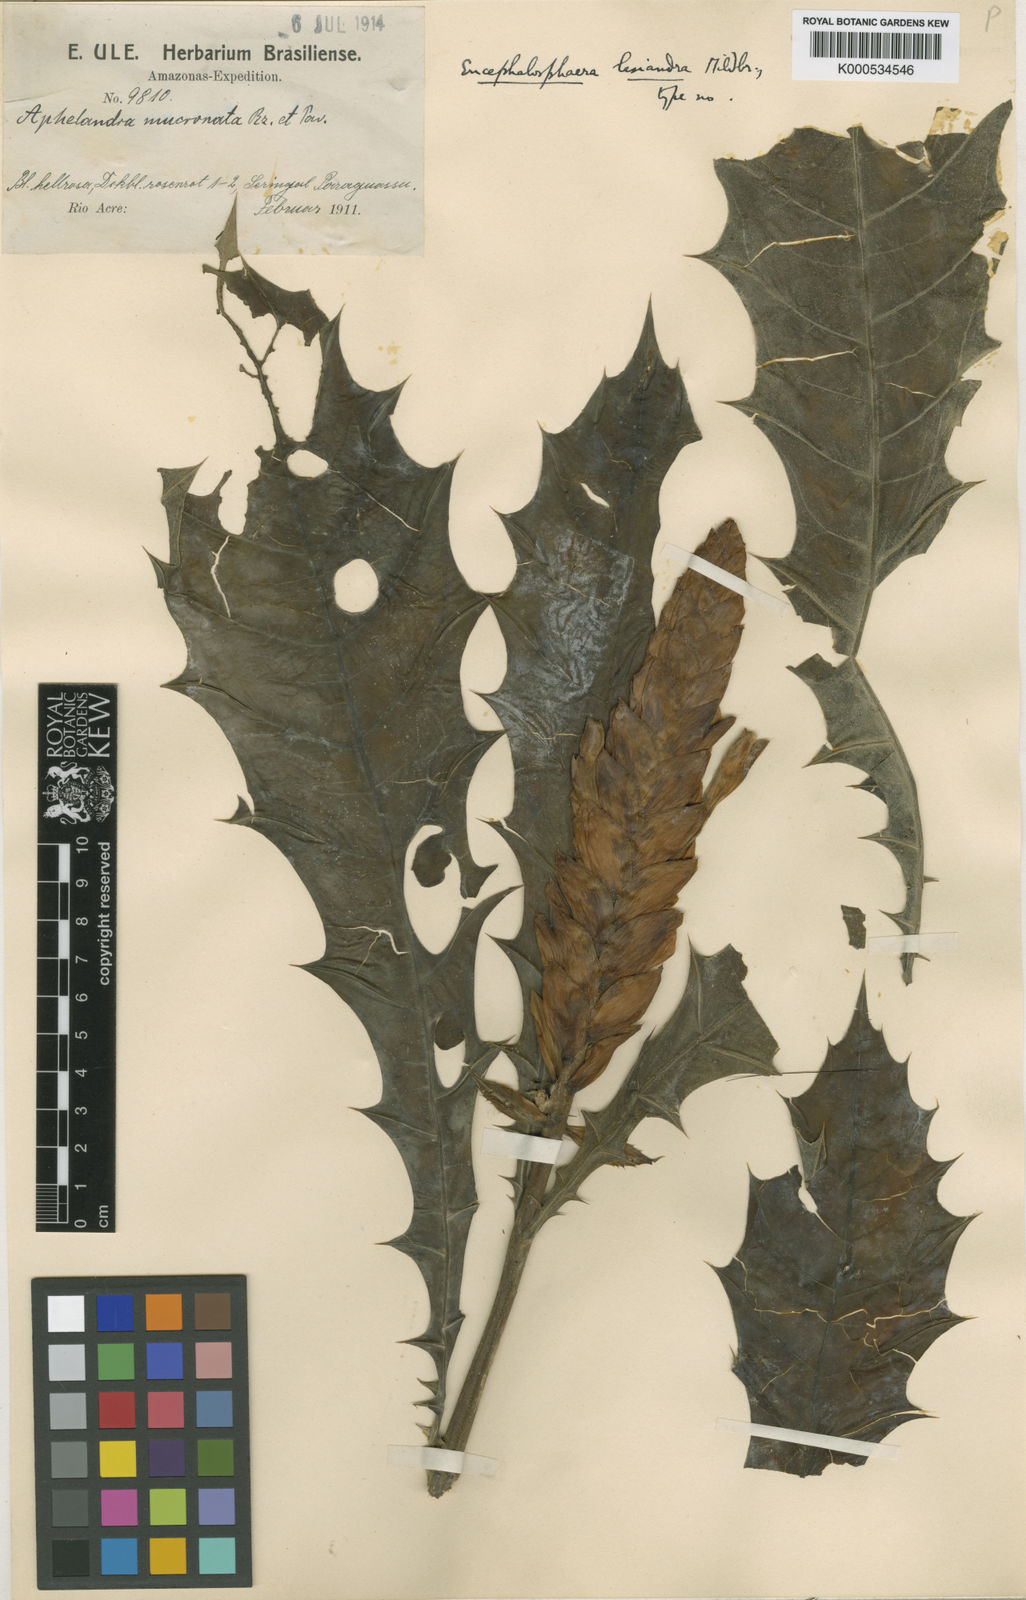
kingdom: Plantae
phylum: Tracheophyta
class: Magnoliopsida
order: Lamiales
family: Acanthaceae
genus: Aphelandra
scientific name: Aphelandra lasiandra
